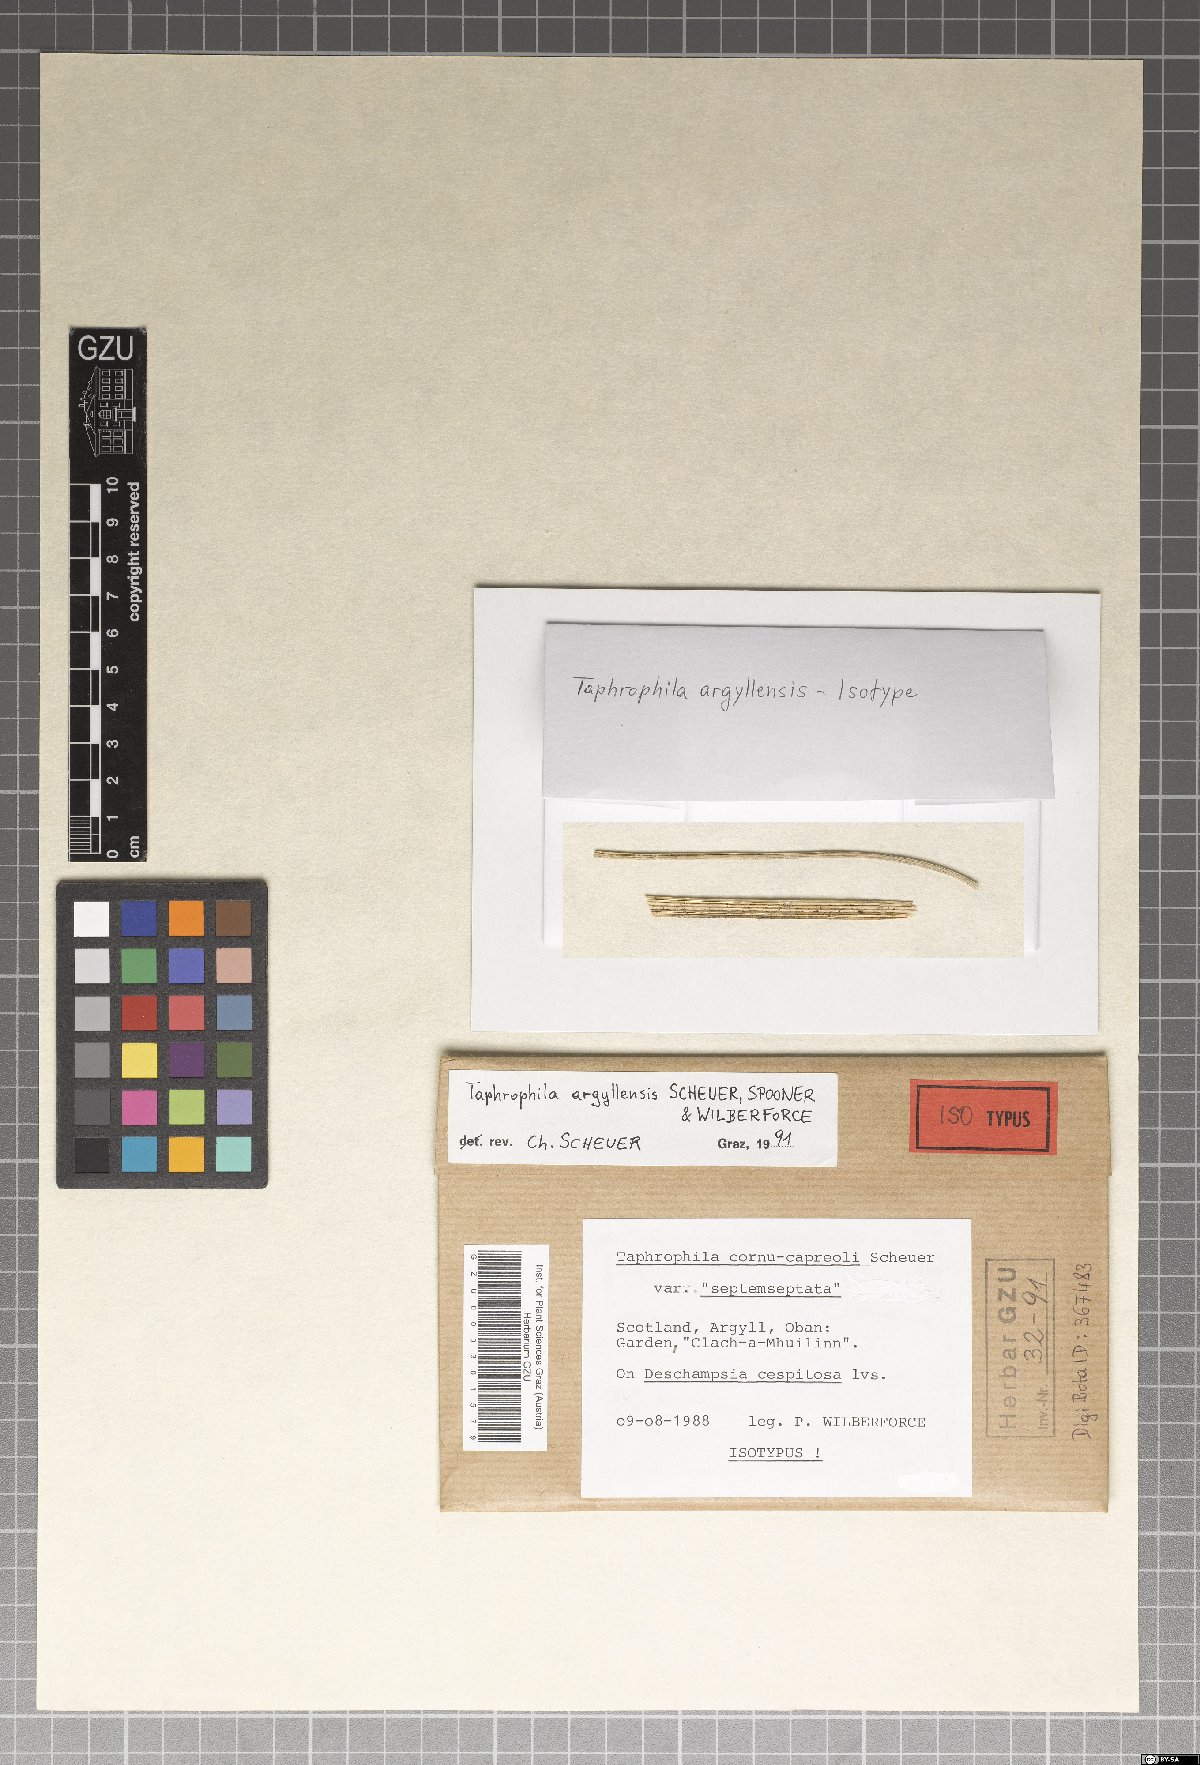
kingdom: Fungi
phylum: Ascomycota
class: Dothideomycetes
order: Tubeufiales
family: Tubeufiaceae
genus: Taphrophila
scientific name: Taphrophila argyllensis
